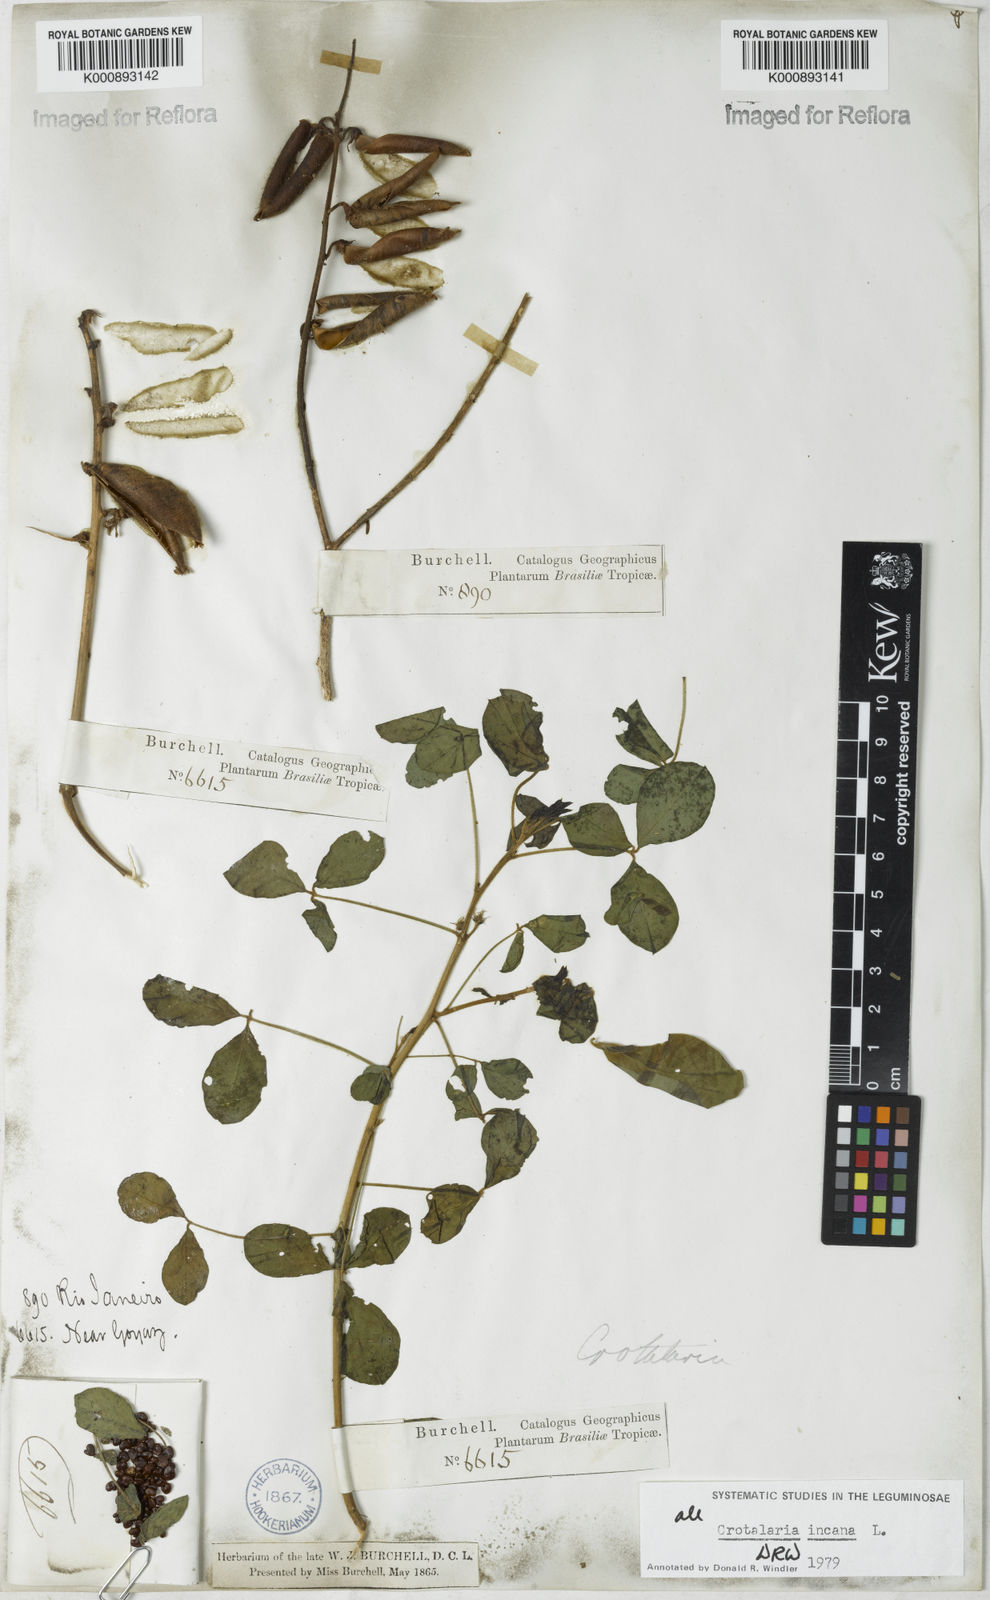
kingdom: Plantae
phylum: Tracheophyta
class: Magnoliopsida
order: Fabales
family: Fabaceae
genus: Crotalaria
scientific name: Crotalaria incana
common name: Shakeshake
